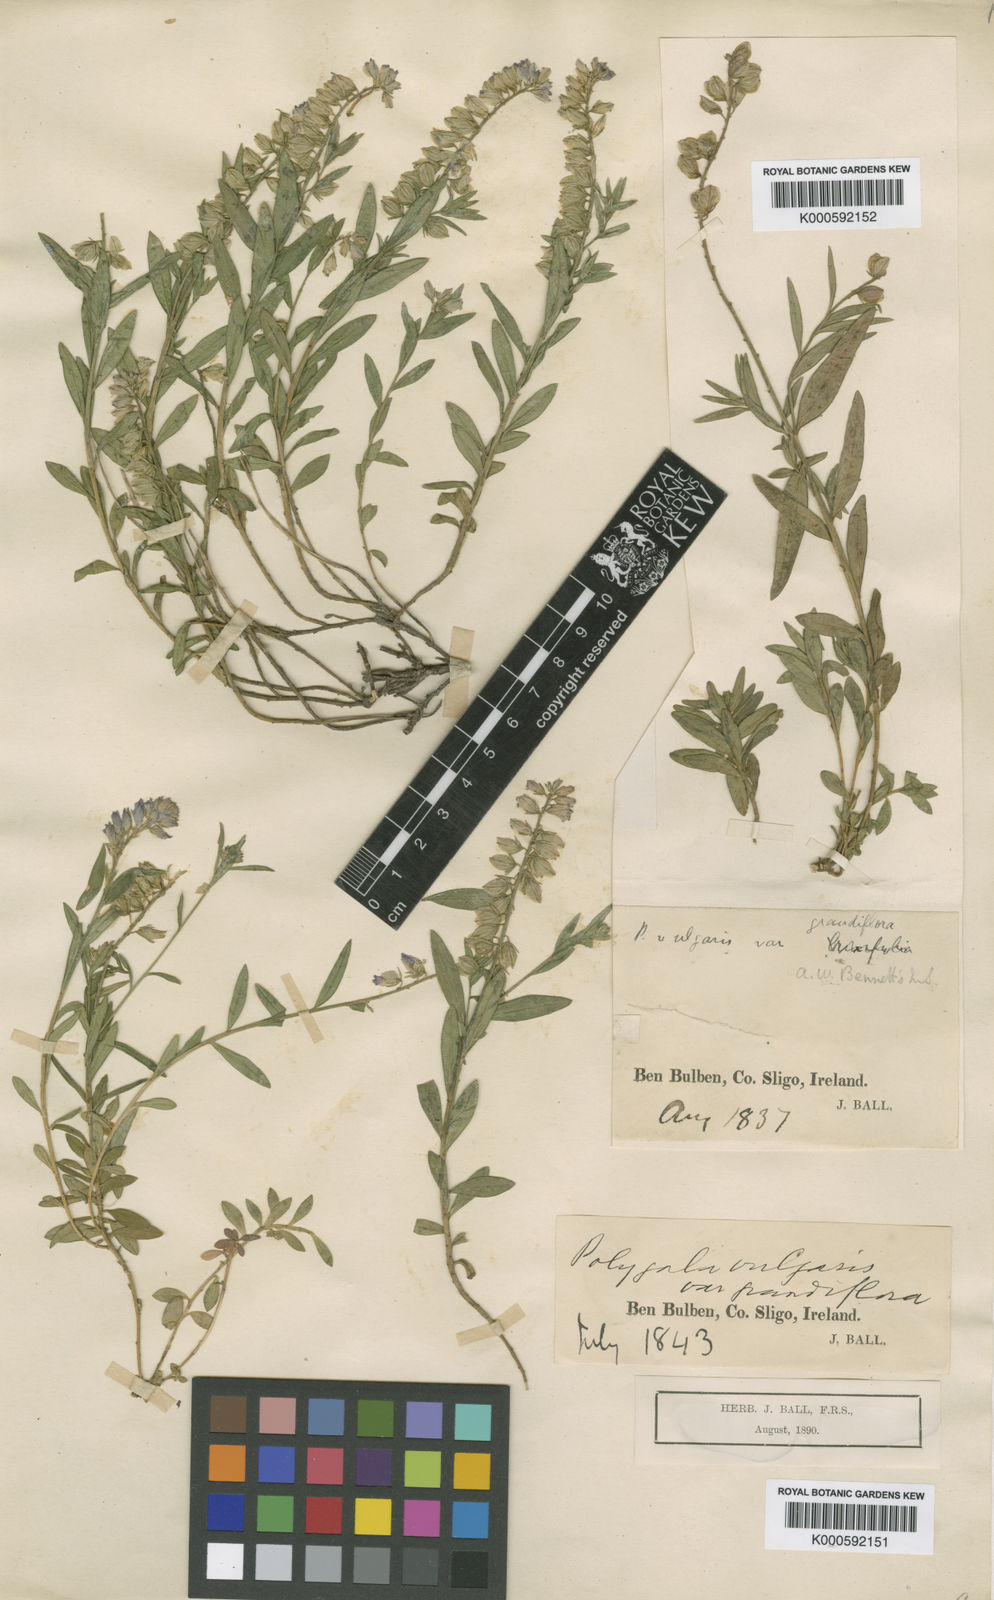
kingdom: Plantae
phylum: Tracheophyta
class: Magnoliopsida
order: Fabales
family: Polygalaceae
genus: Polygala
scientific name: Polygala vulgaris
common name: Common milkwort
